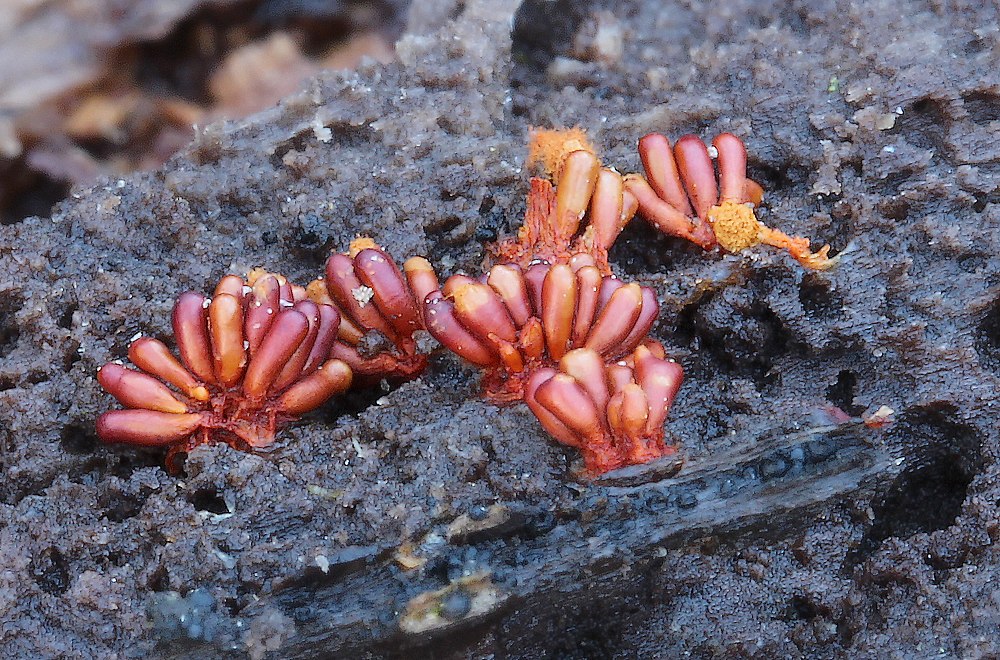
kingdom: Protozoa
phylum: Mycetozoa
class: Myxomycetes
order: Trichiales
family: Trichiaceae
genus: Metatrichia
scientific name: Metatrichia vesparia
